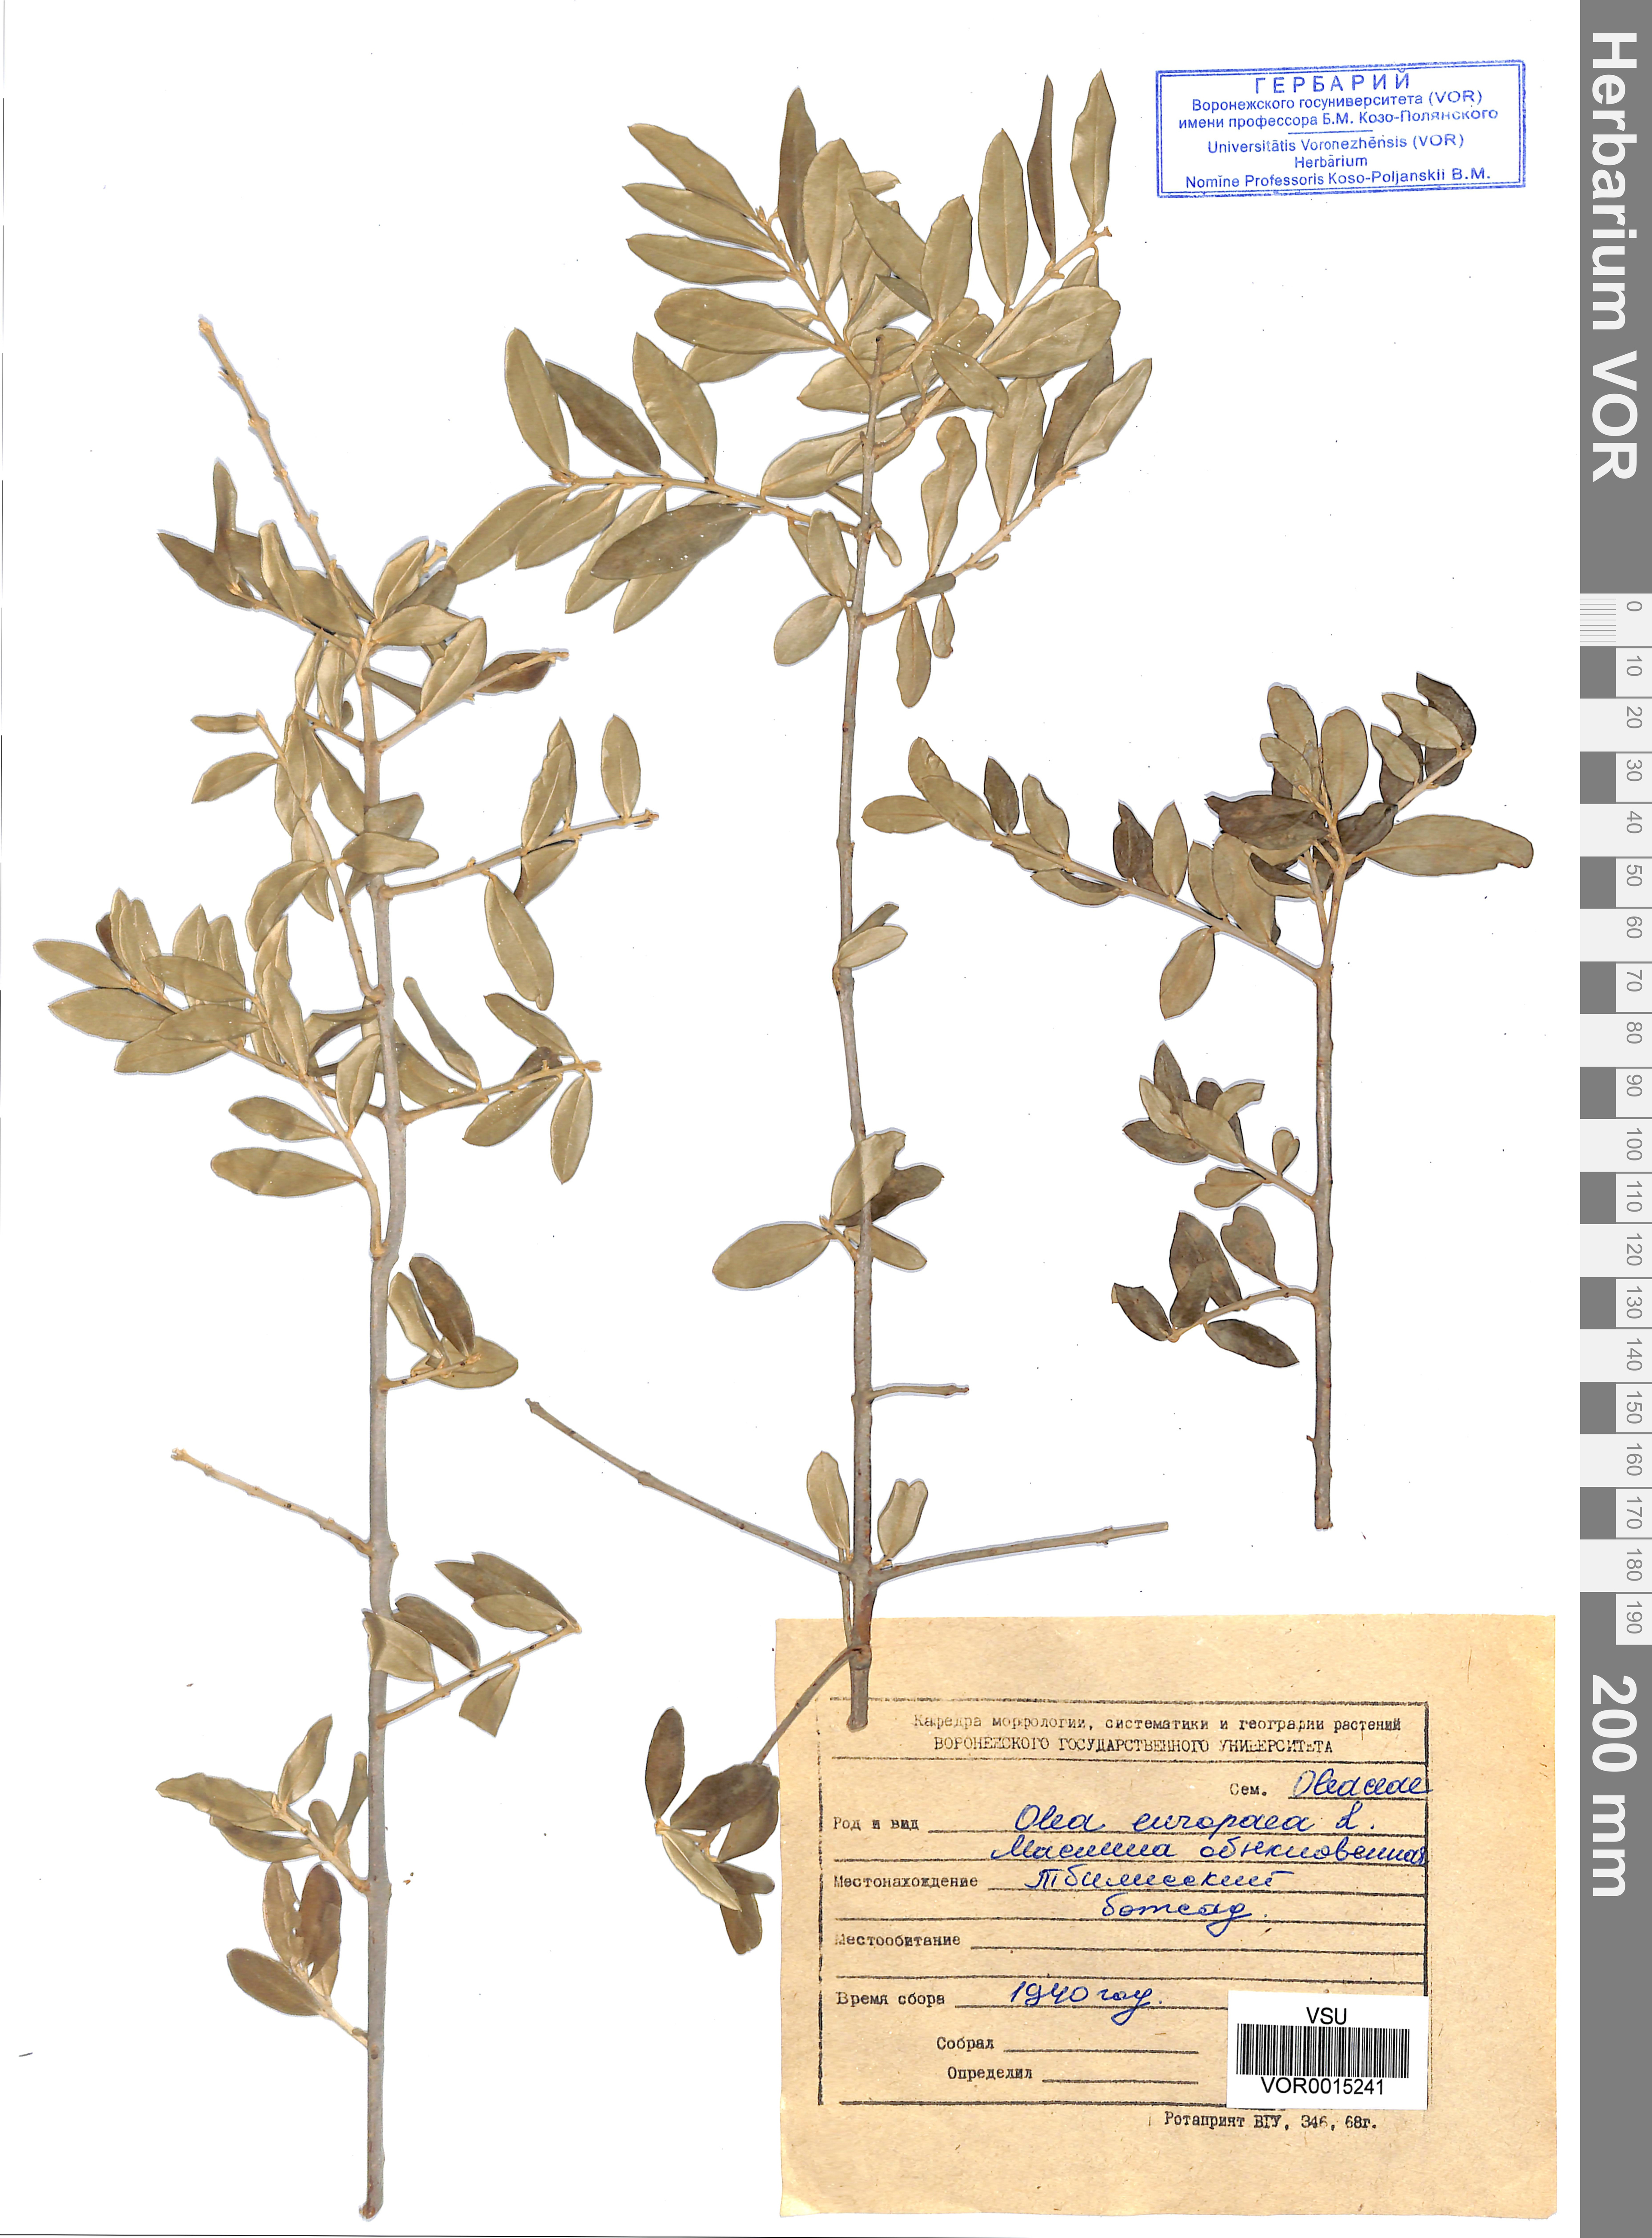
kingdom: Plantae
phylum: Tracheophyta
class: Magnoliopsida
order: Lamiales
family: Oleaceae
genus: Olea
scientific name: Olea europaea
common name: Olive
